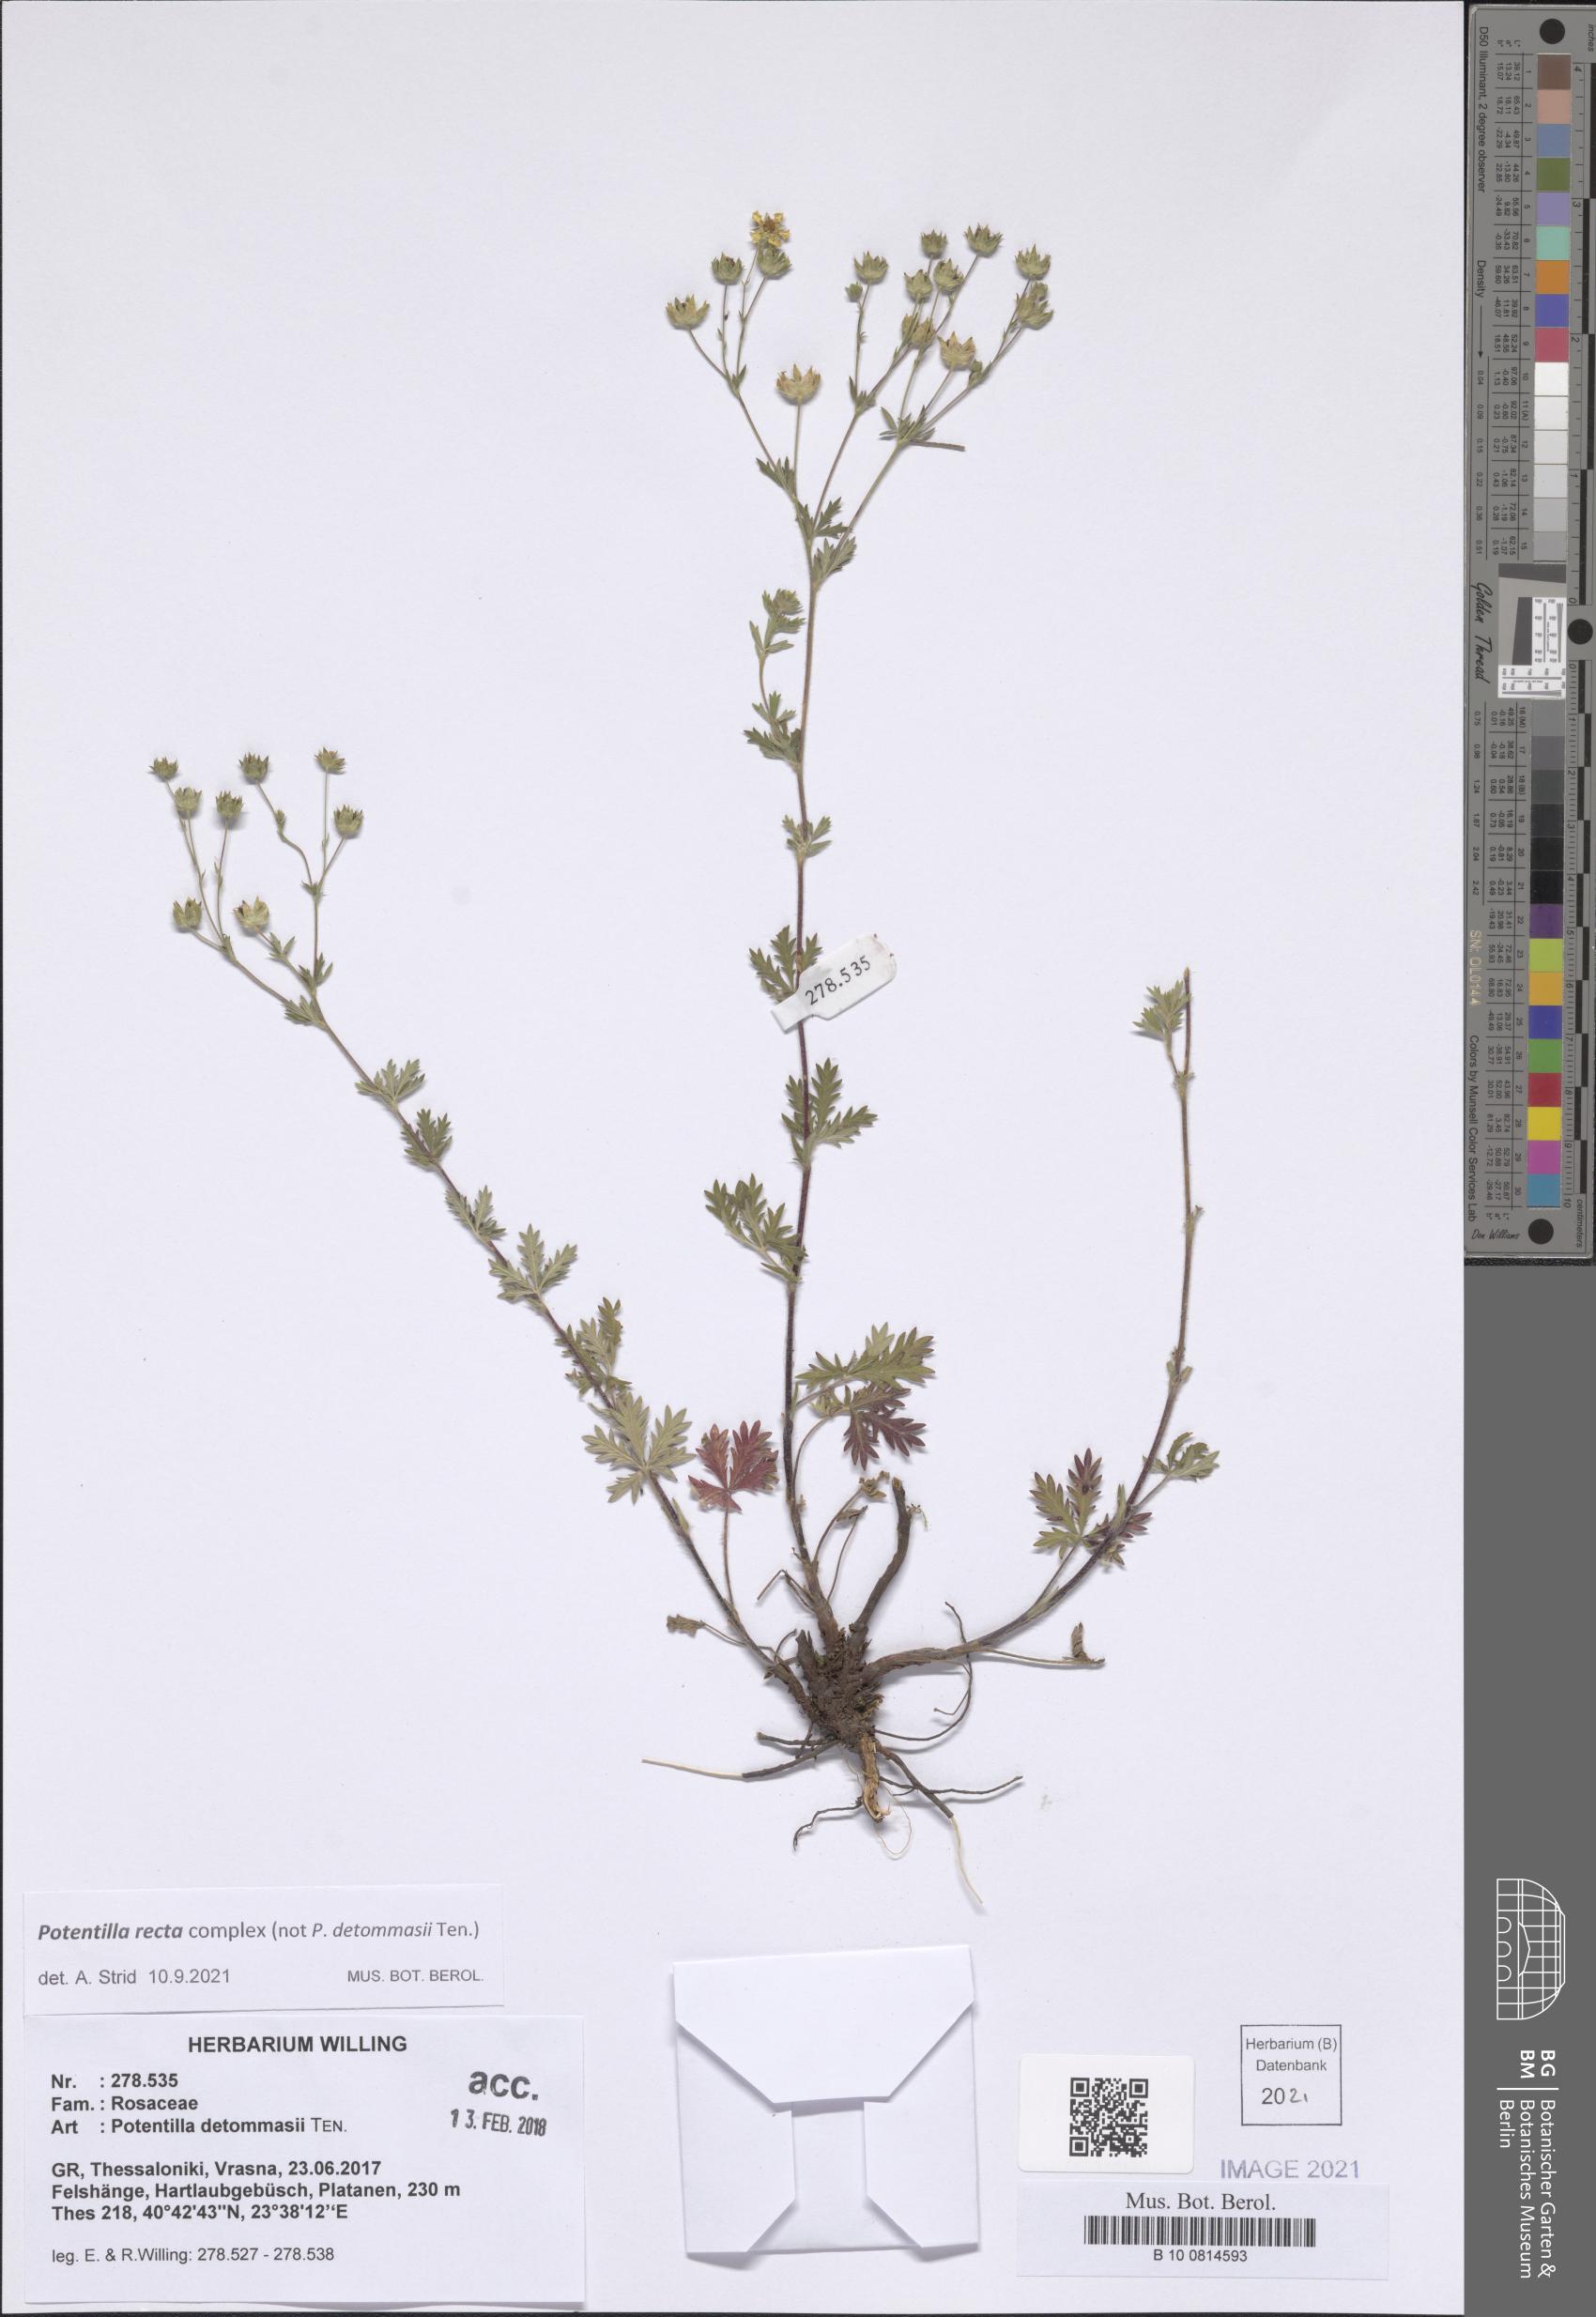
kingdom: Plantae
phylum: Tracheophyta
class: Magnoliopsida
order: Rosales
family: Rosaceae
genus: Potentilla
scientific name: Potentilla recta
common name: Sulphur cinquefoil
